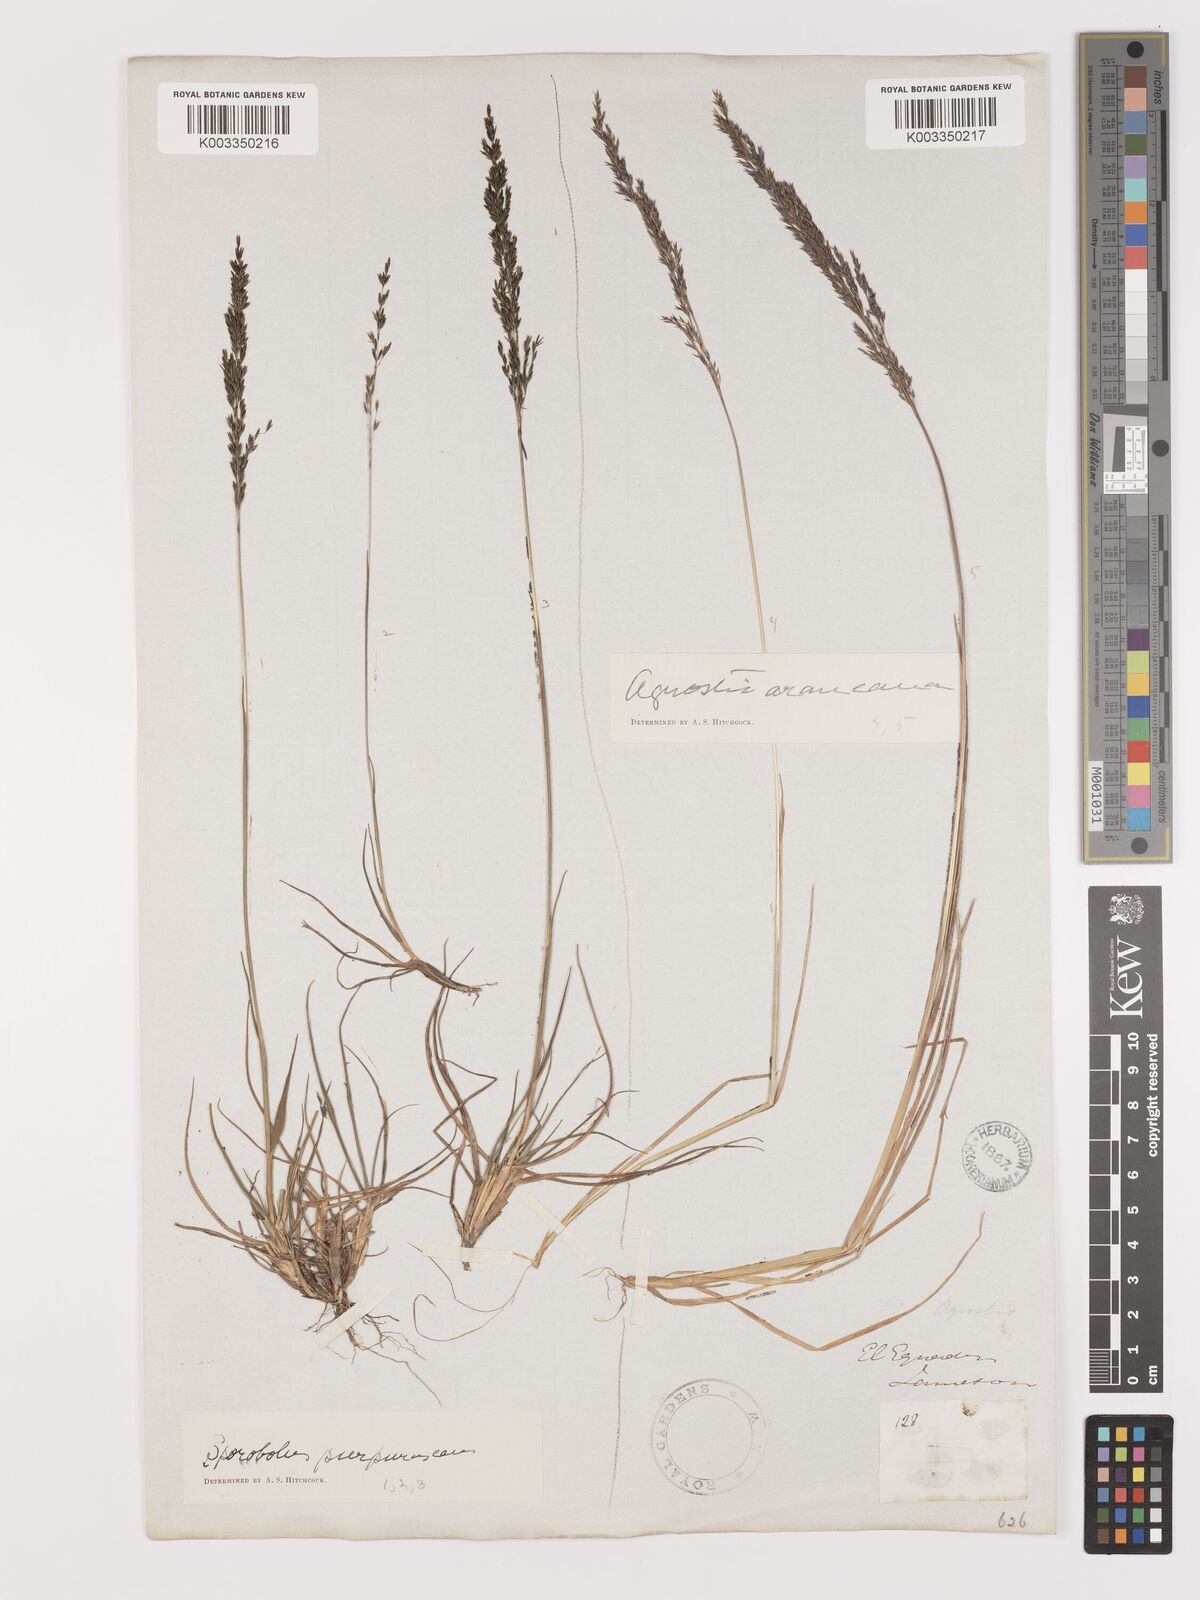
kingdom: Plantae
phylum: Tracheophyta
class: Liliopsida
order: Poales
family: Poaceae
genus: Agrostis
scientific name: Agrostis
